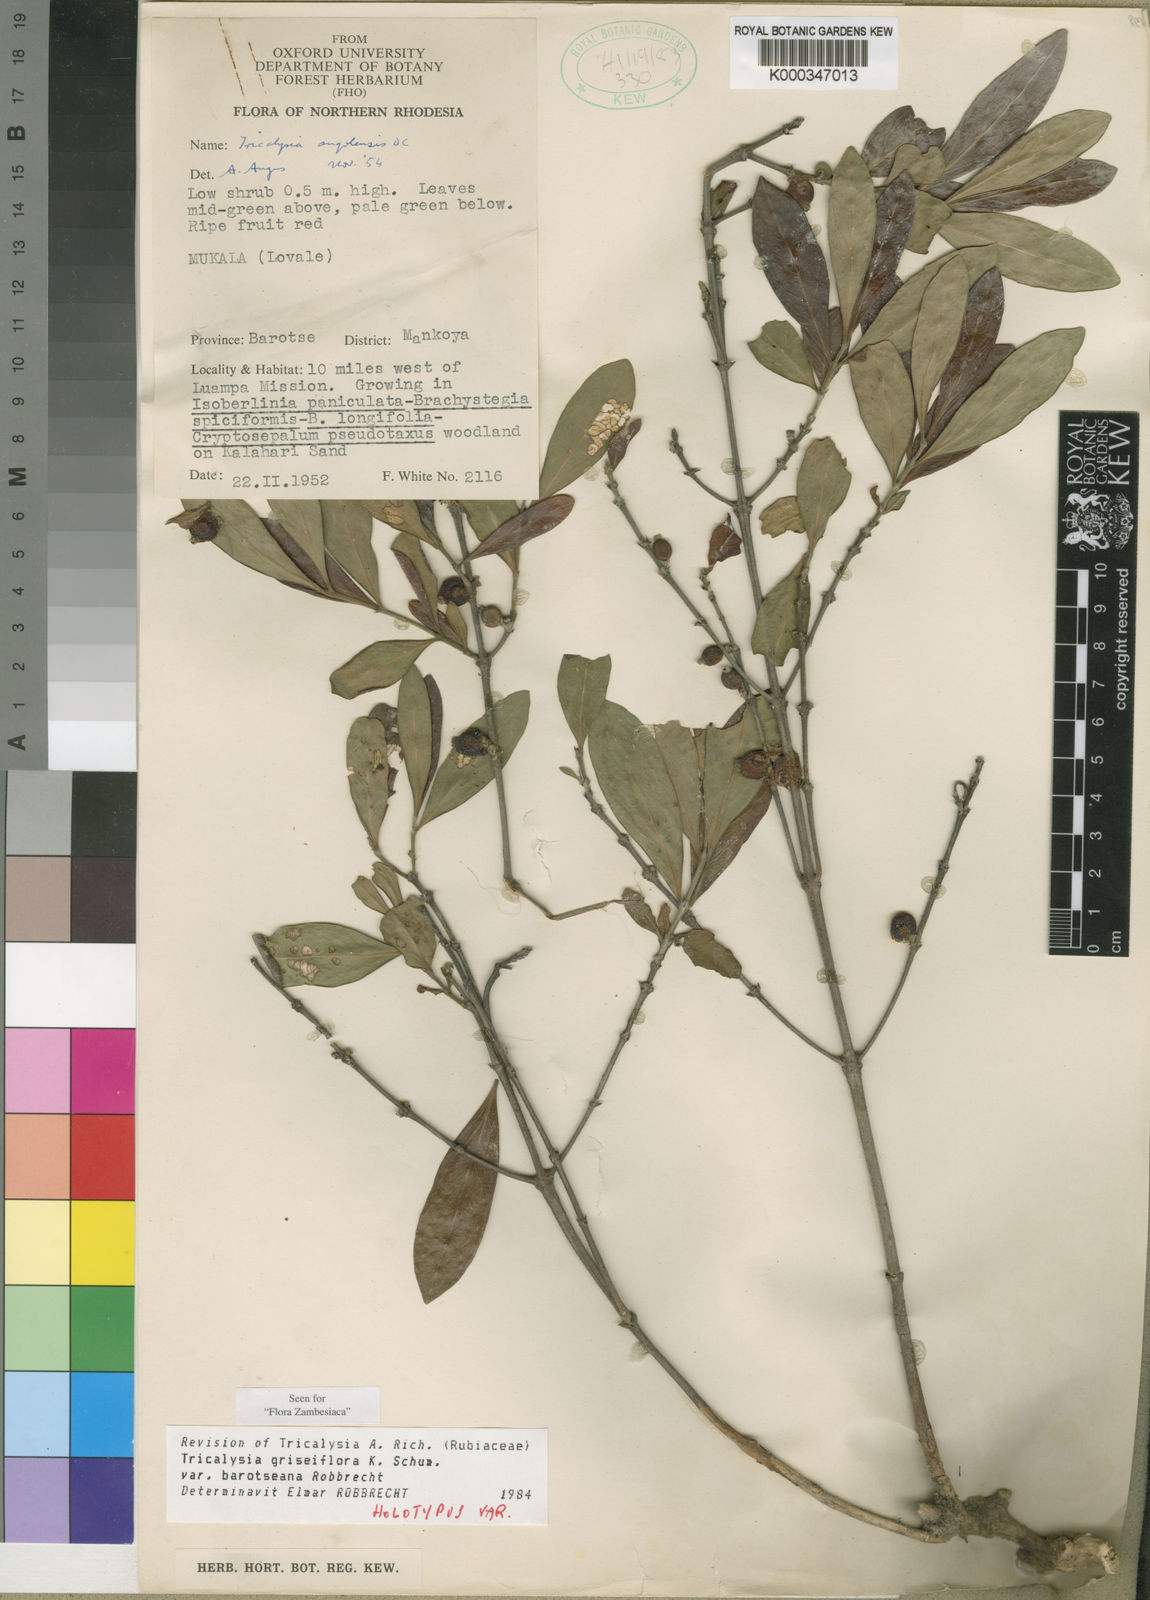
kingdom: Plantae
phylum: Tracheophyta
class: Magnoliopsida
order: Gentianales
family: Rubiaceae
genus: Tricalysia
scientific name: Tricalysia griseiflora
